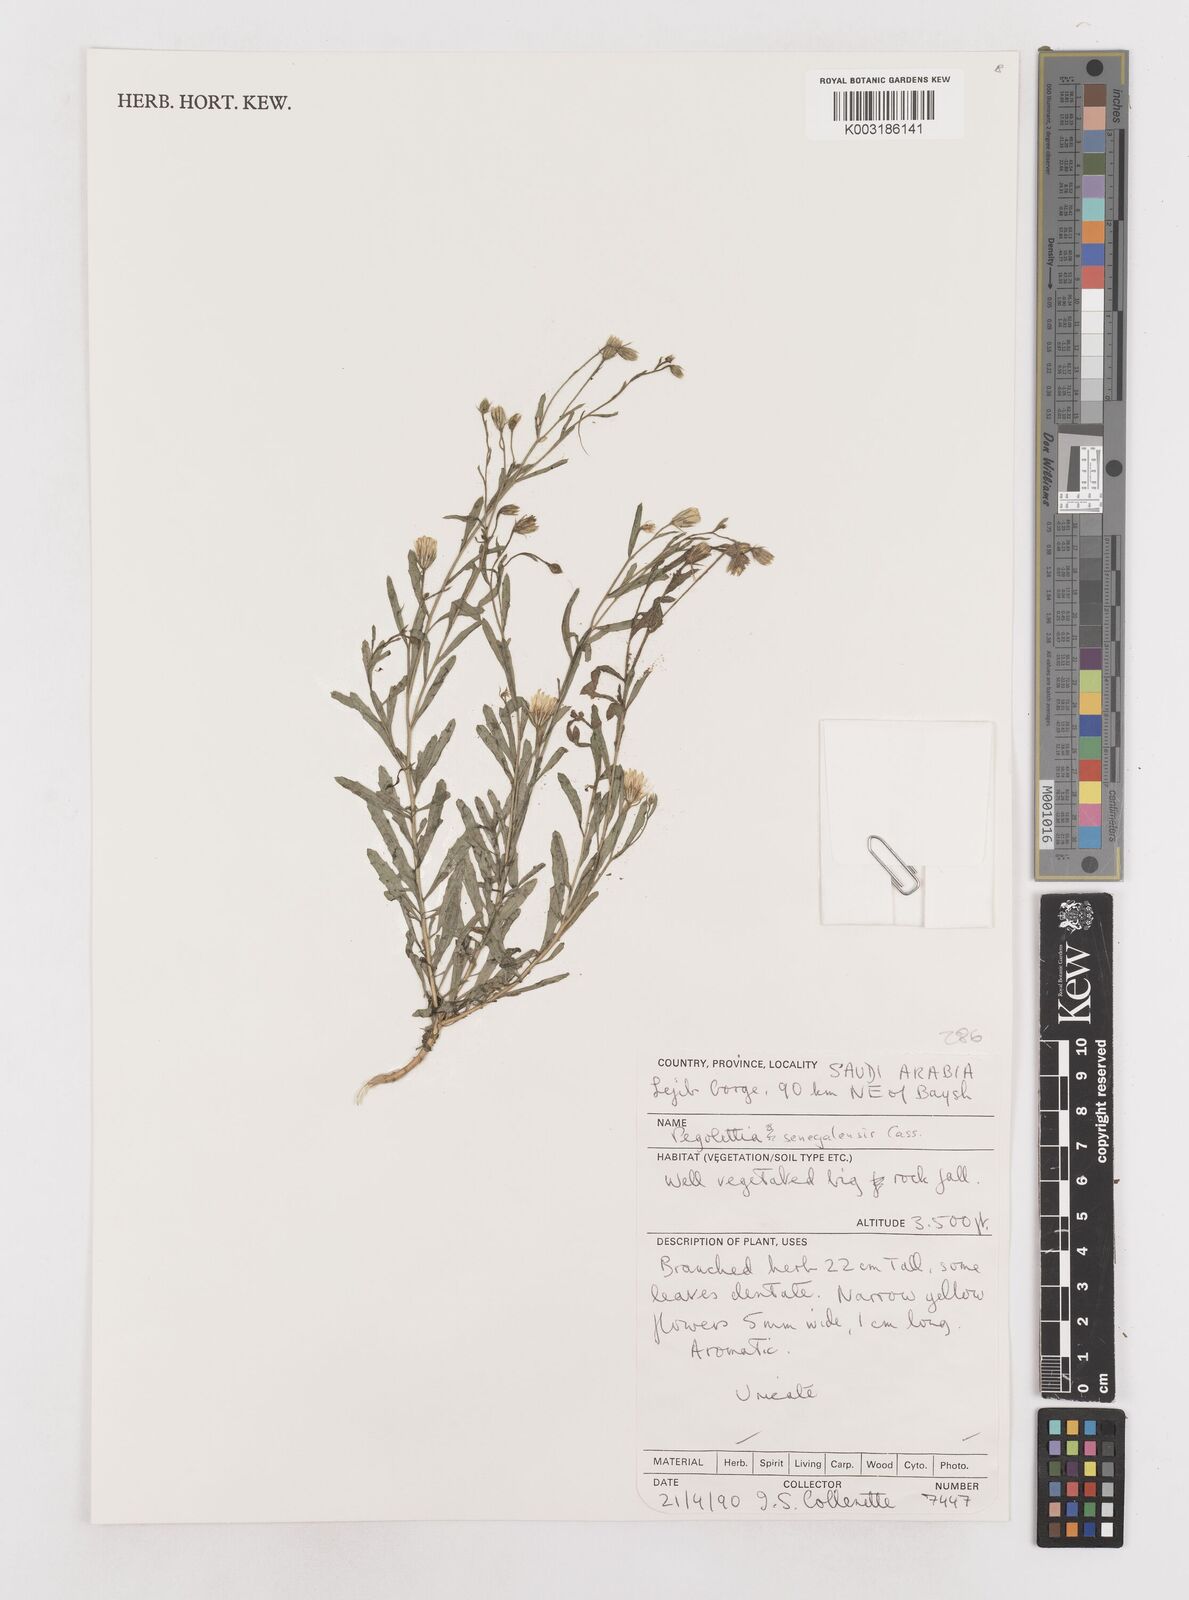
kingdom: Plantae
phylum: Tracheophyta
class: Magnoliopsida
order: Asterales
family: Asteraceae
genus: Pegolettia
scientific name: Pegolettia senegalensis
